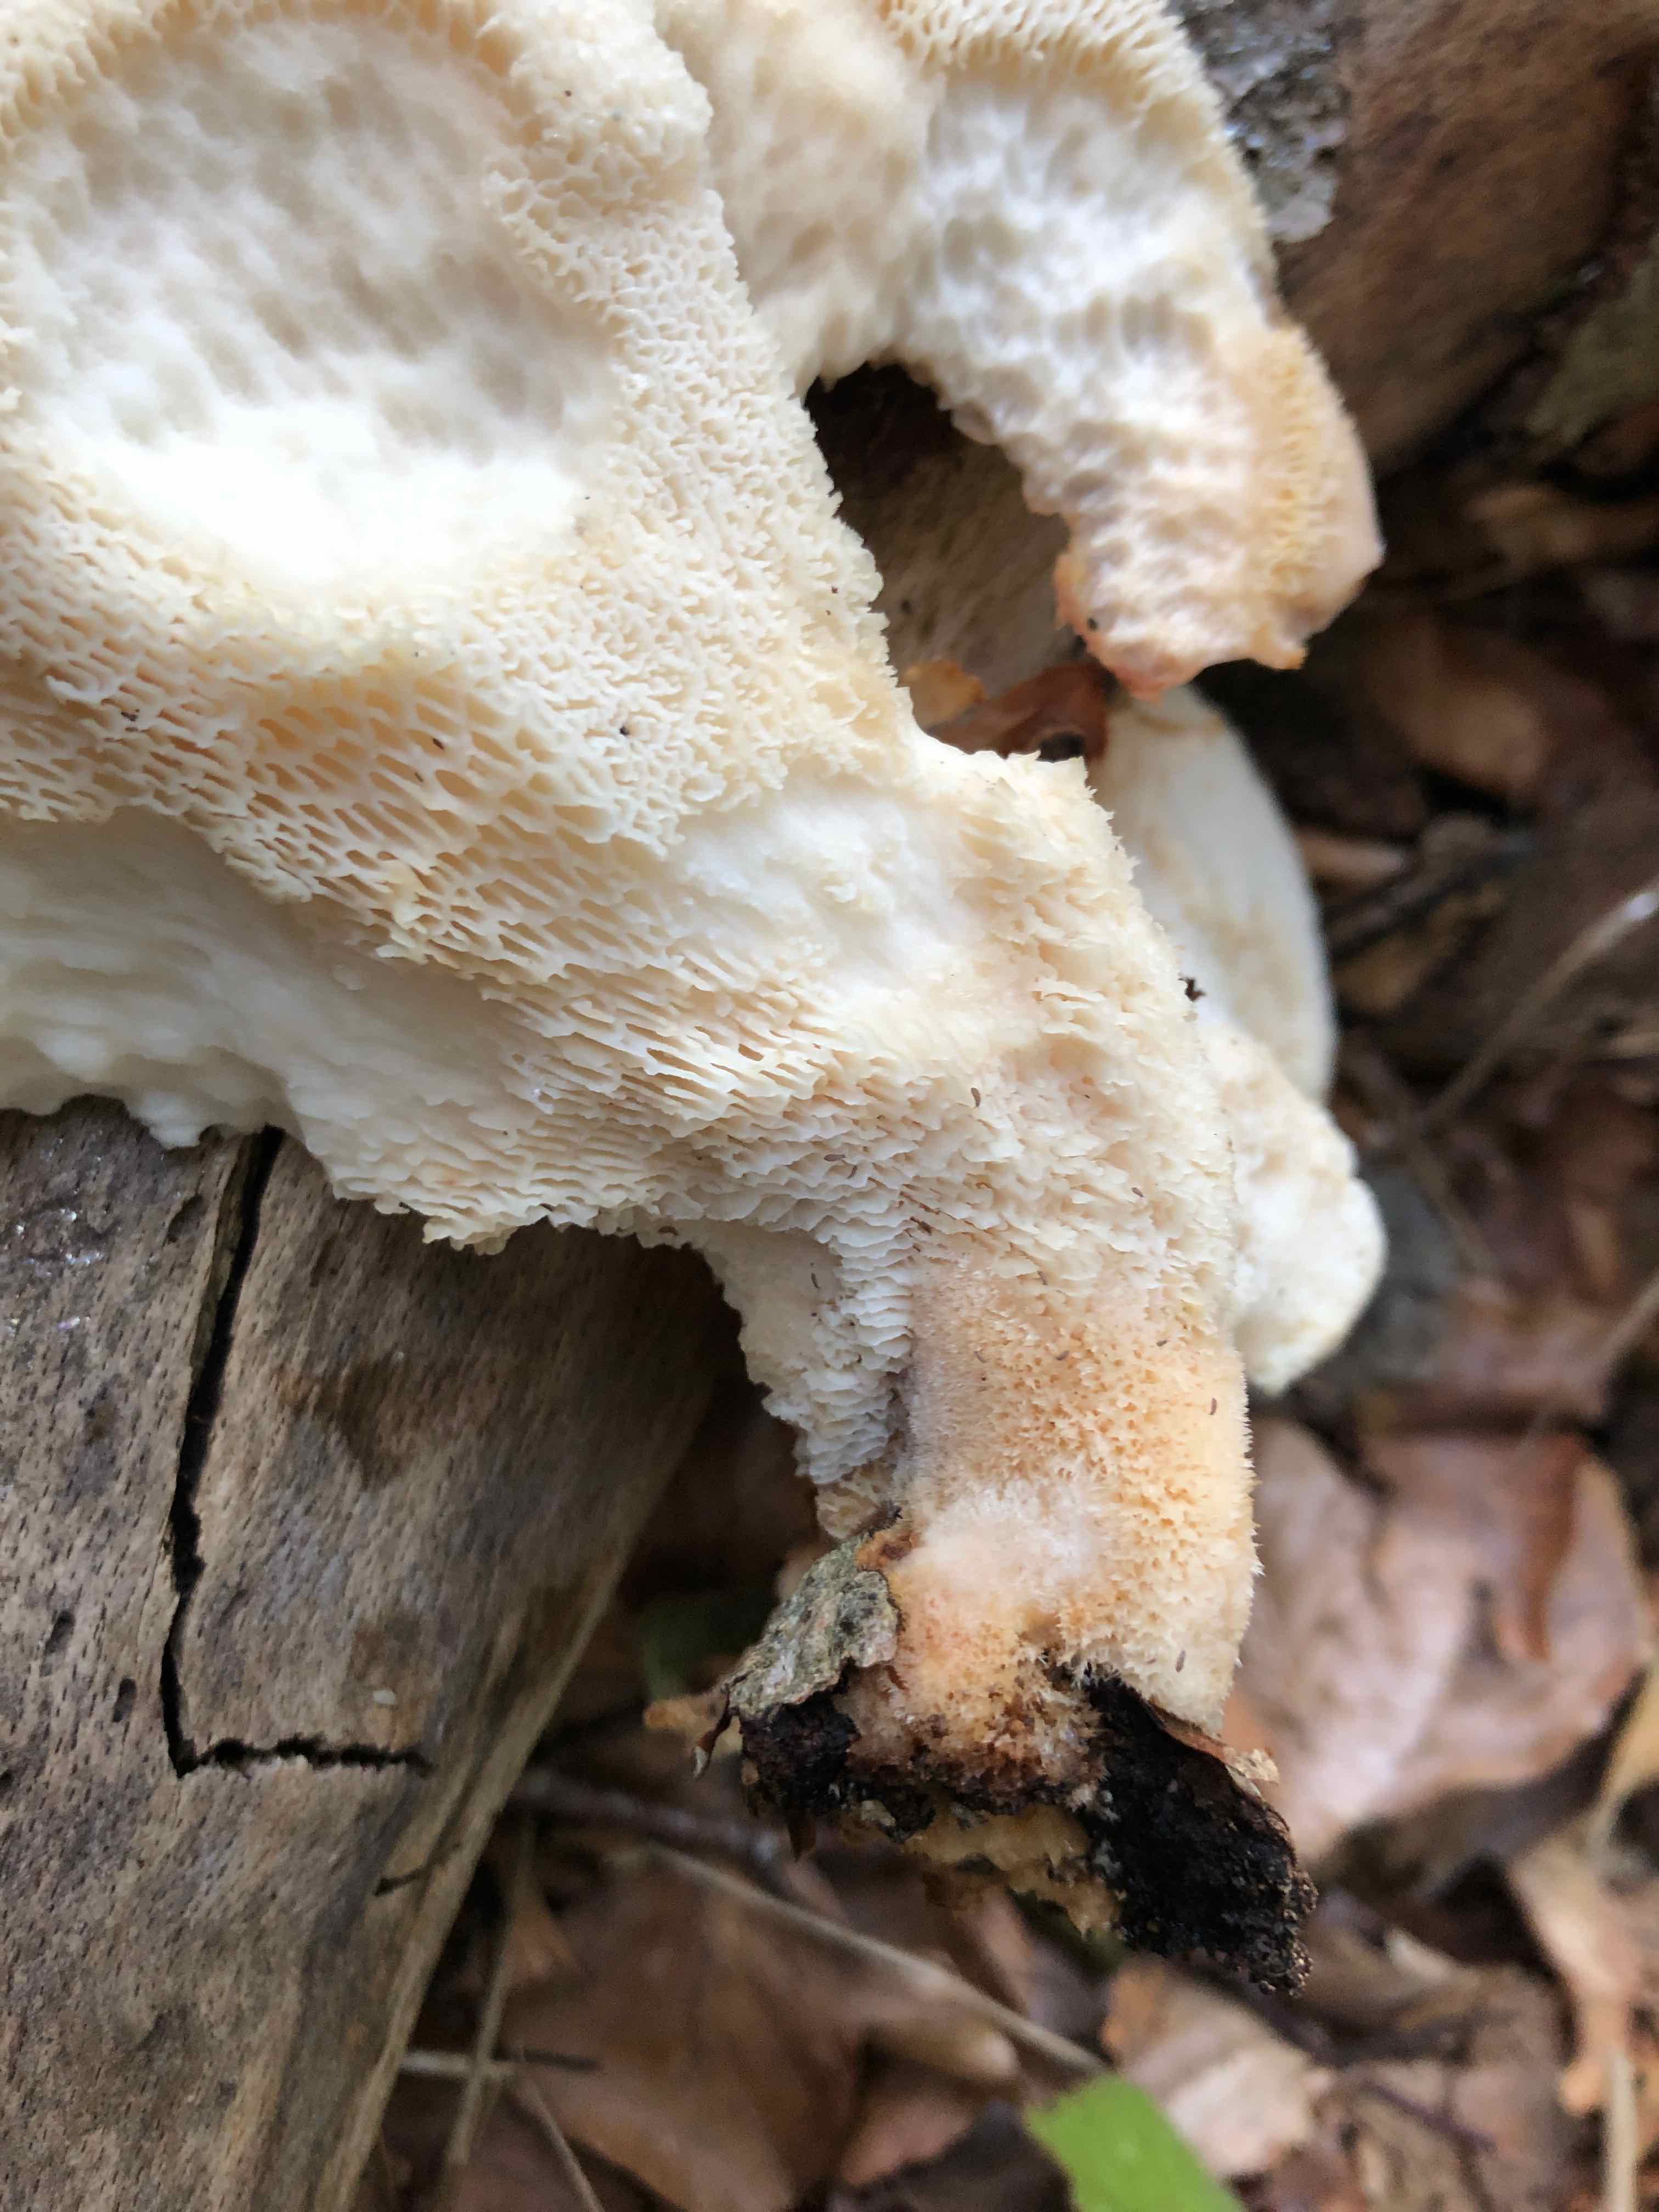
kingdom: Fungi
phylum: Basidiomycota
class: Agaricomycetes
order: Polyporales
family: Polyporaceae
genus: Polyporus
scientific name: Polyporus tuberaster
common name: knoldet stilkporesvamp
